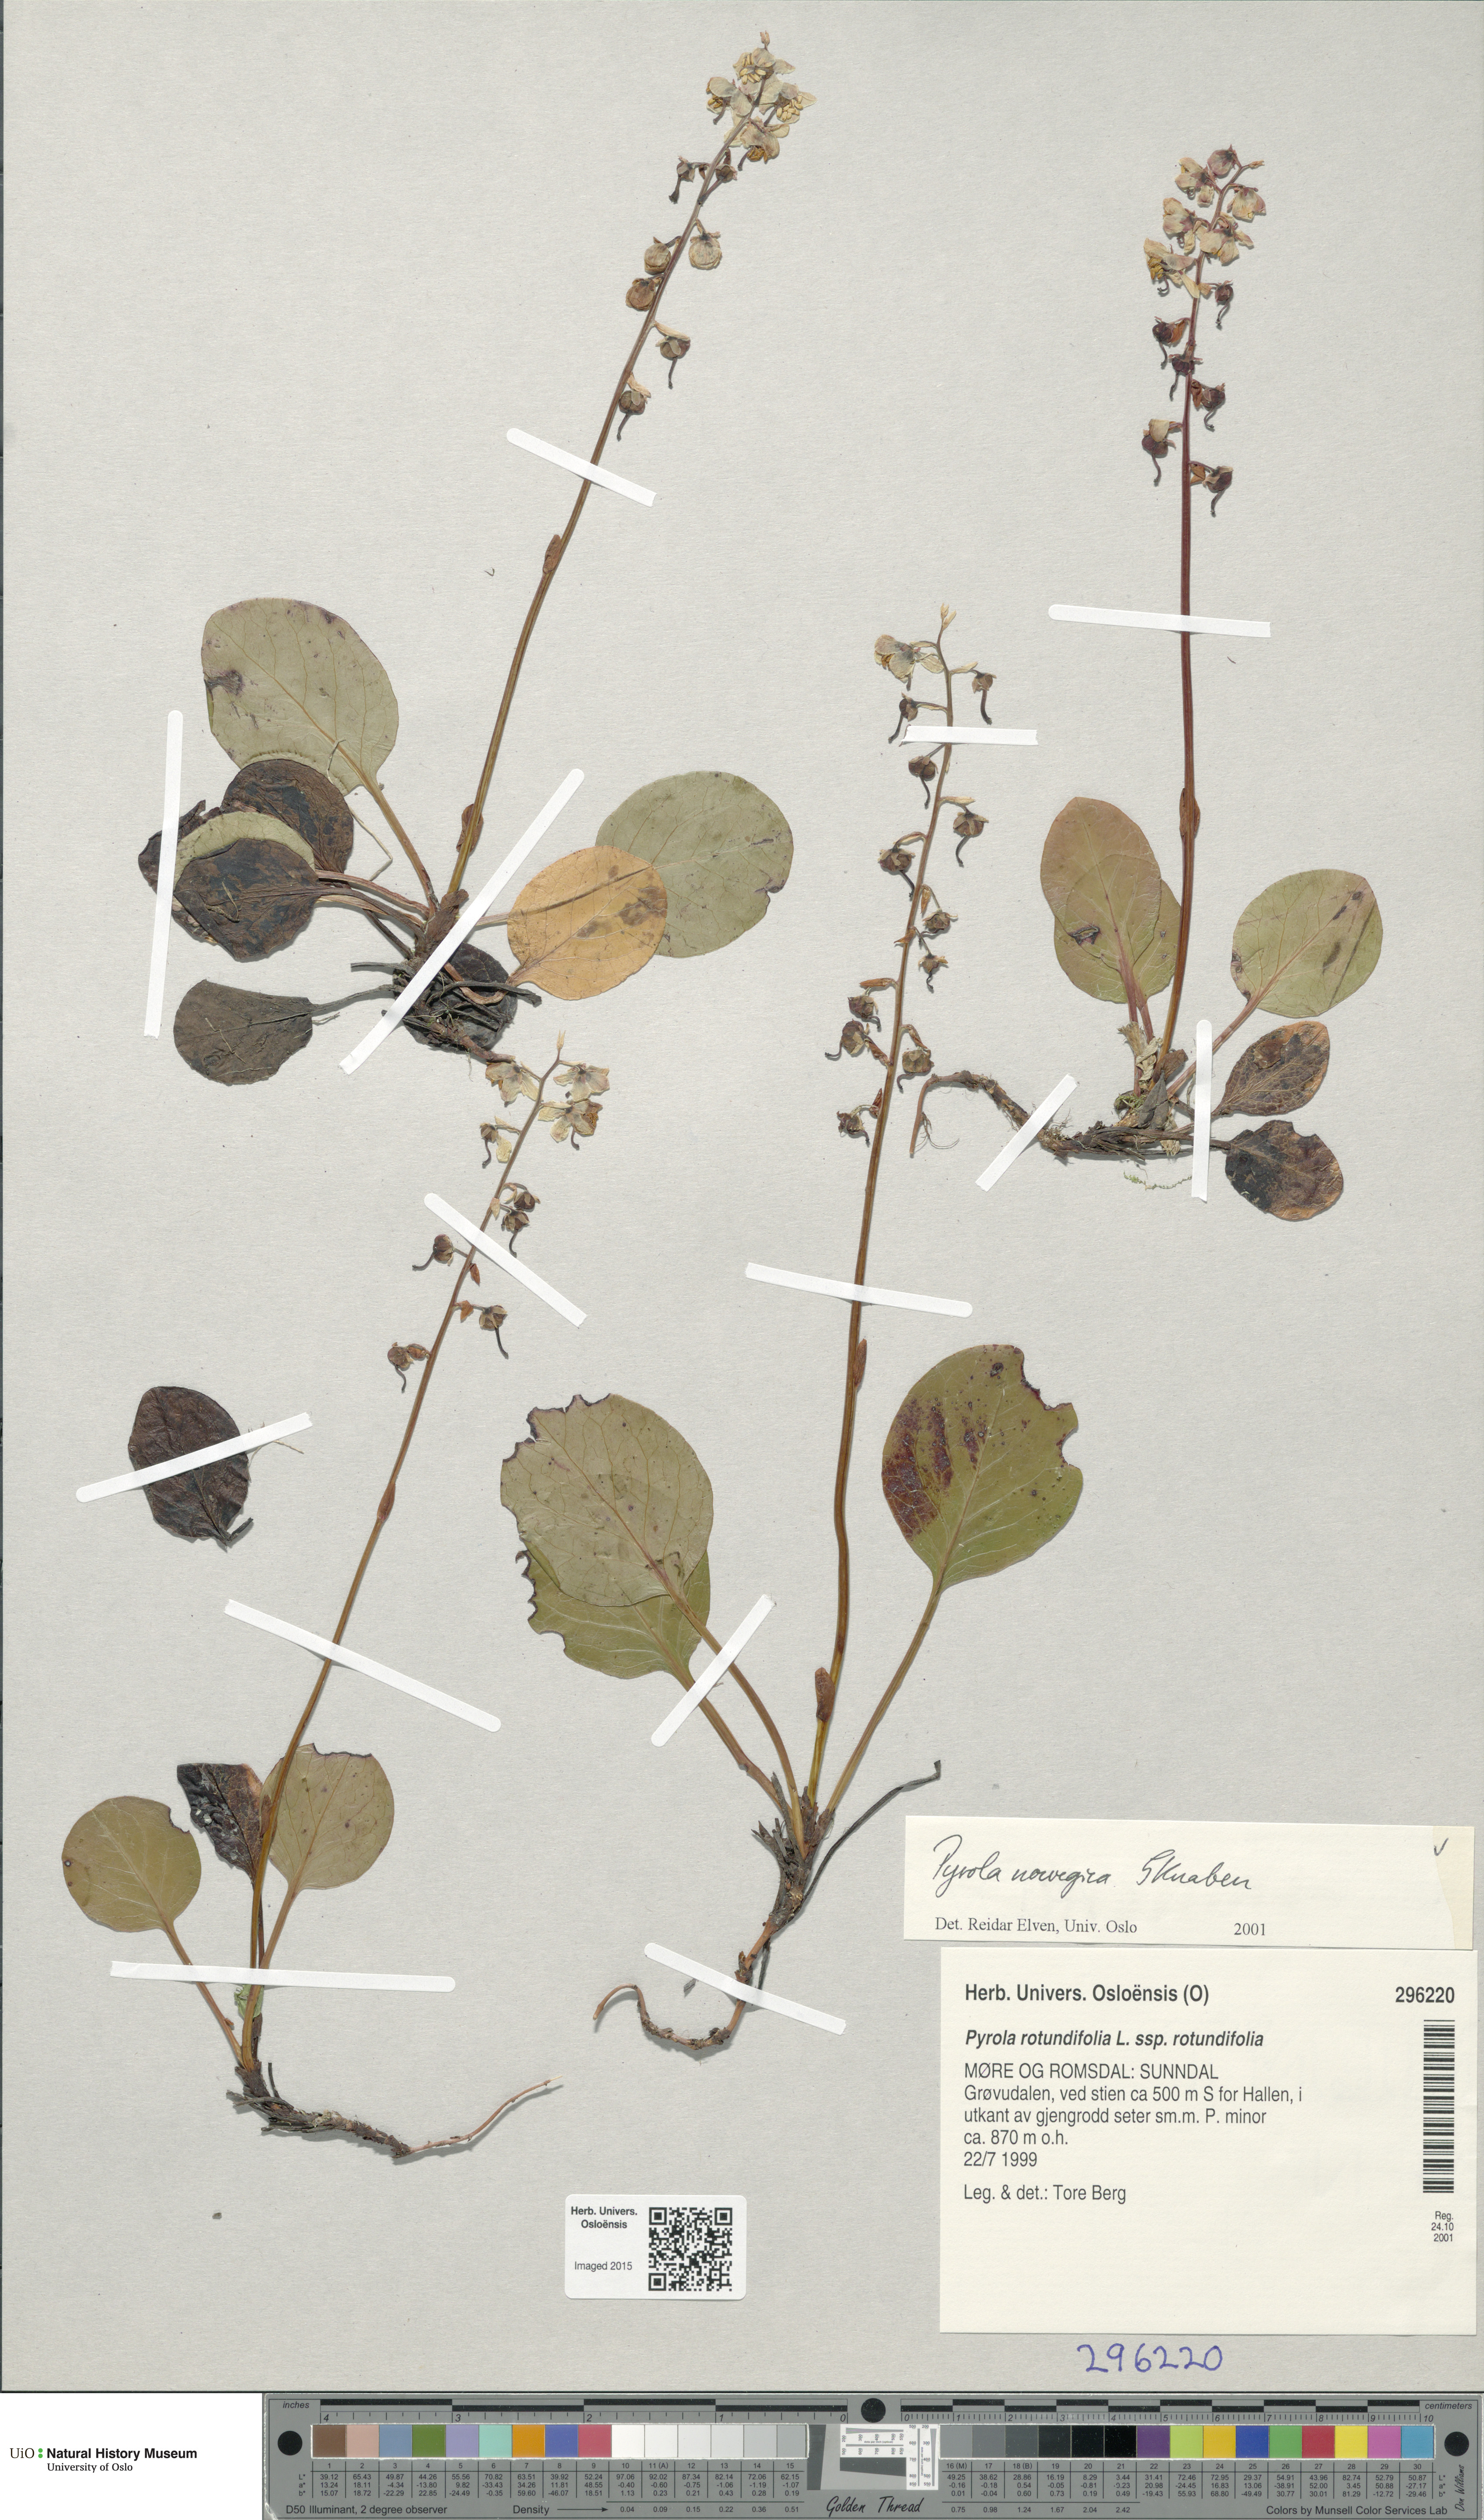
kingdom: Plantae
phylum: Tracheophyta
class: Magnoliopsida
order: Ericales
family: Ericaceae
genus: Pyrola
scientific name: Pyrola rotundifolia
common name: Round-leaved wintergreen
